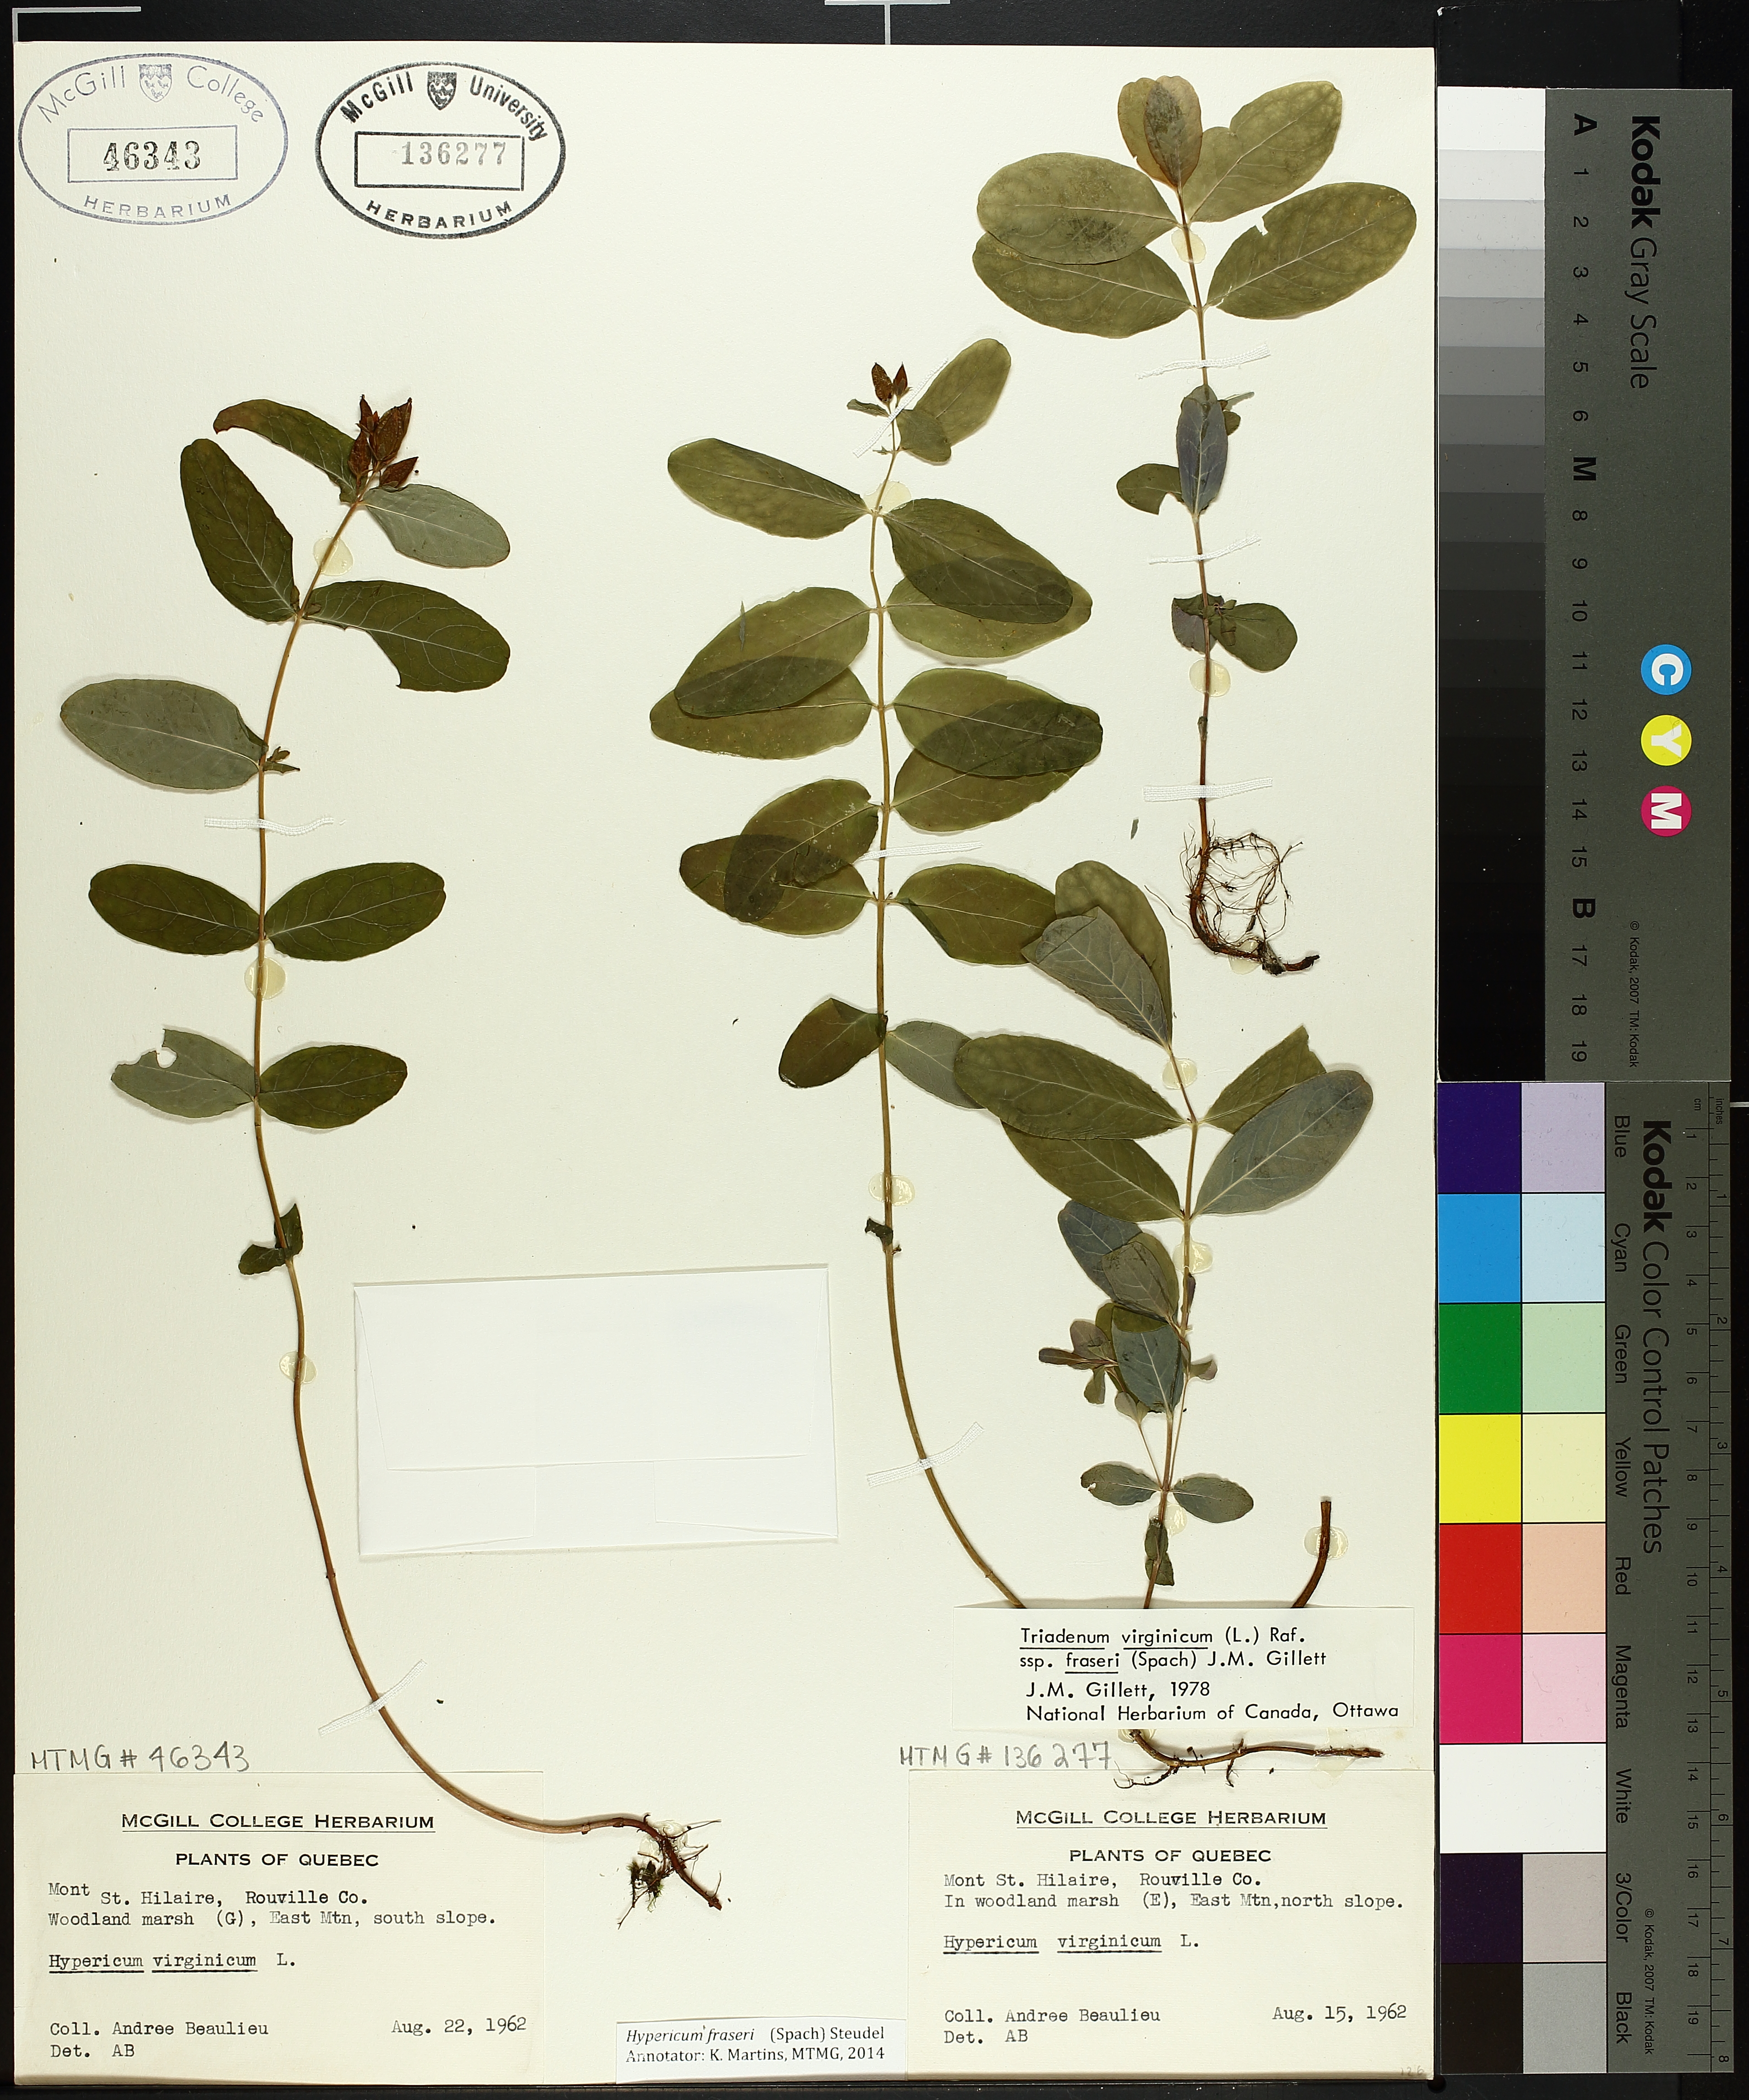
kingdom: Plantae
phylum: Tracheophyta
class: Magnoliopsida
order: Malpighiales
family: Hypericaceae
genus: Triadenum
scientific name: Triadenum fraseri
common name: Fraser's marsh st. johnswort
